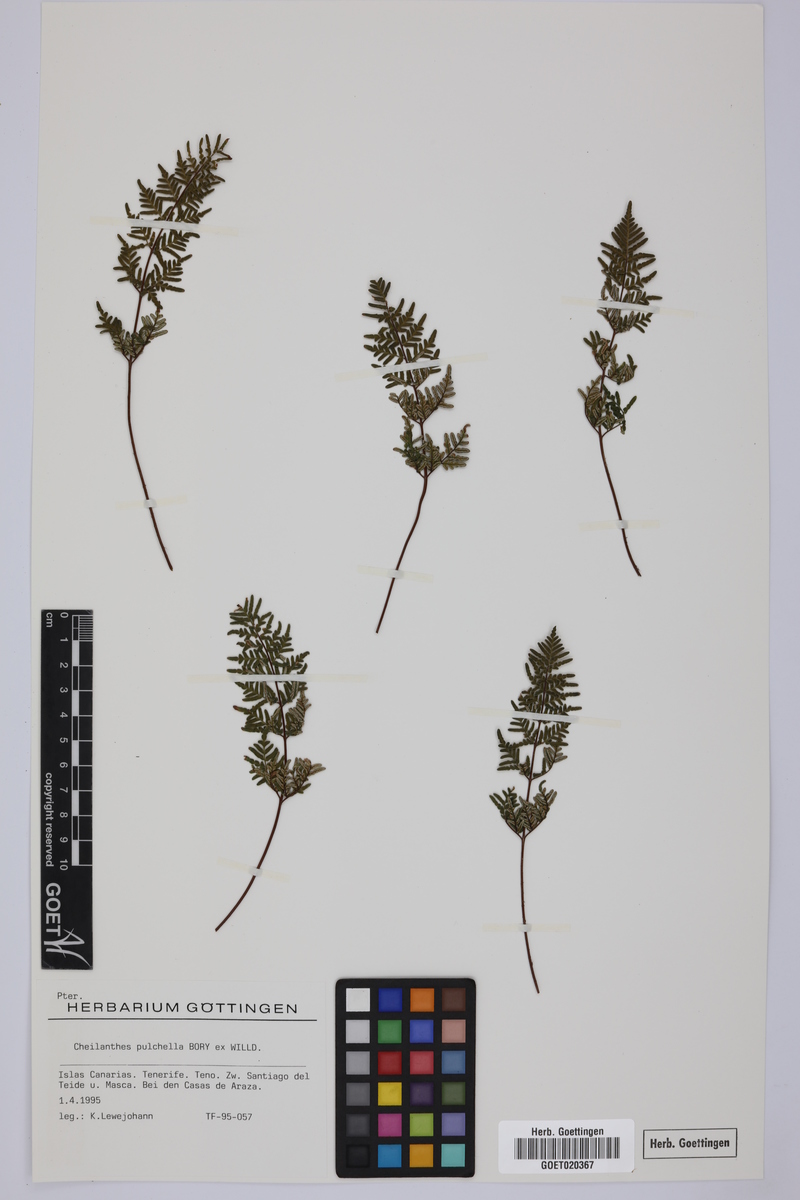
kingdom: Plantae
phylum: Tracheophyta
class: Polypodiopsida
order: Polypodiales
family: Pteridaceae
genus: Oeosporangium
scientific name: Oeosporangium pulchellum
